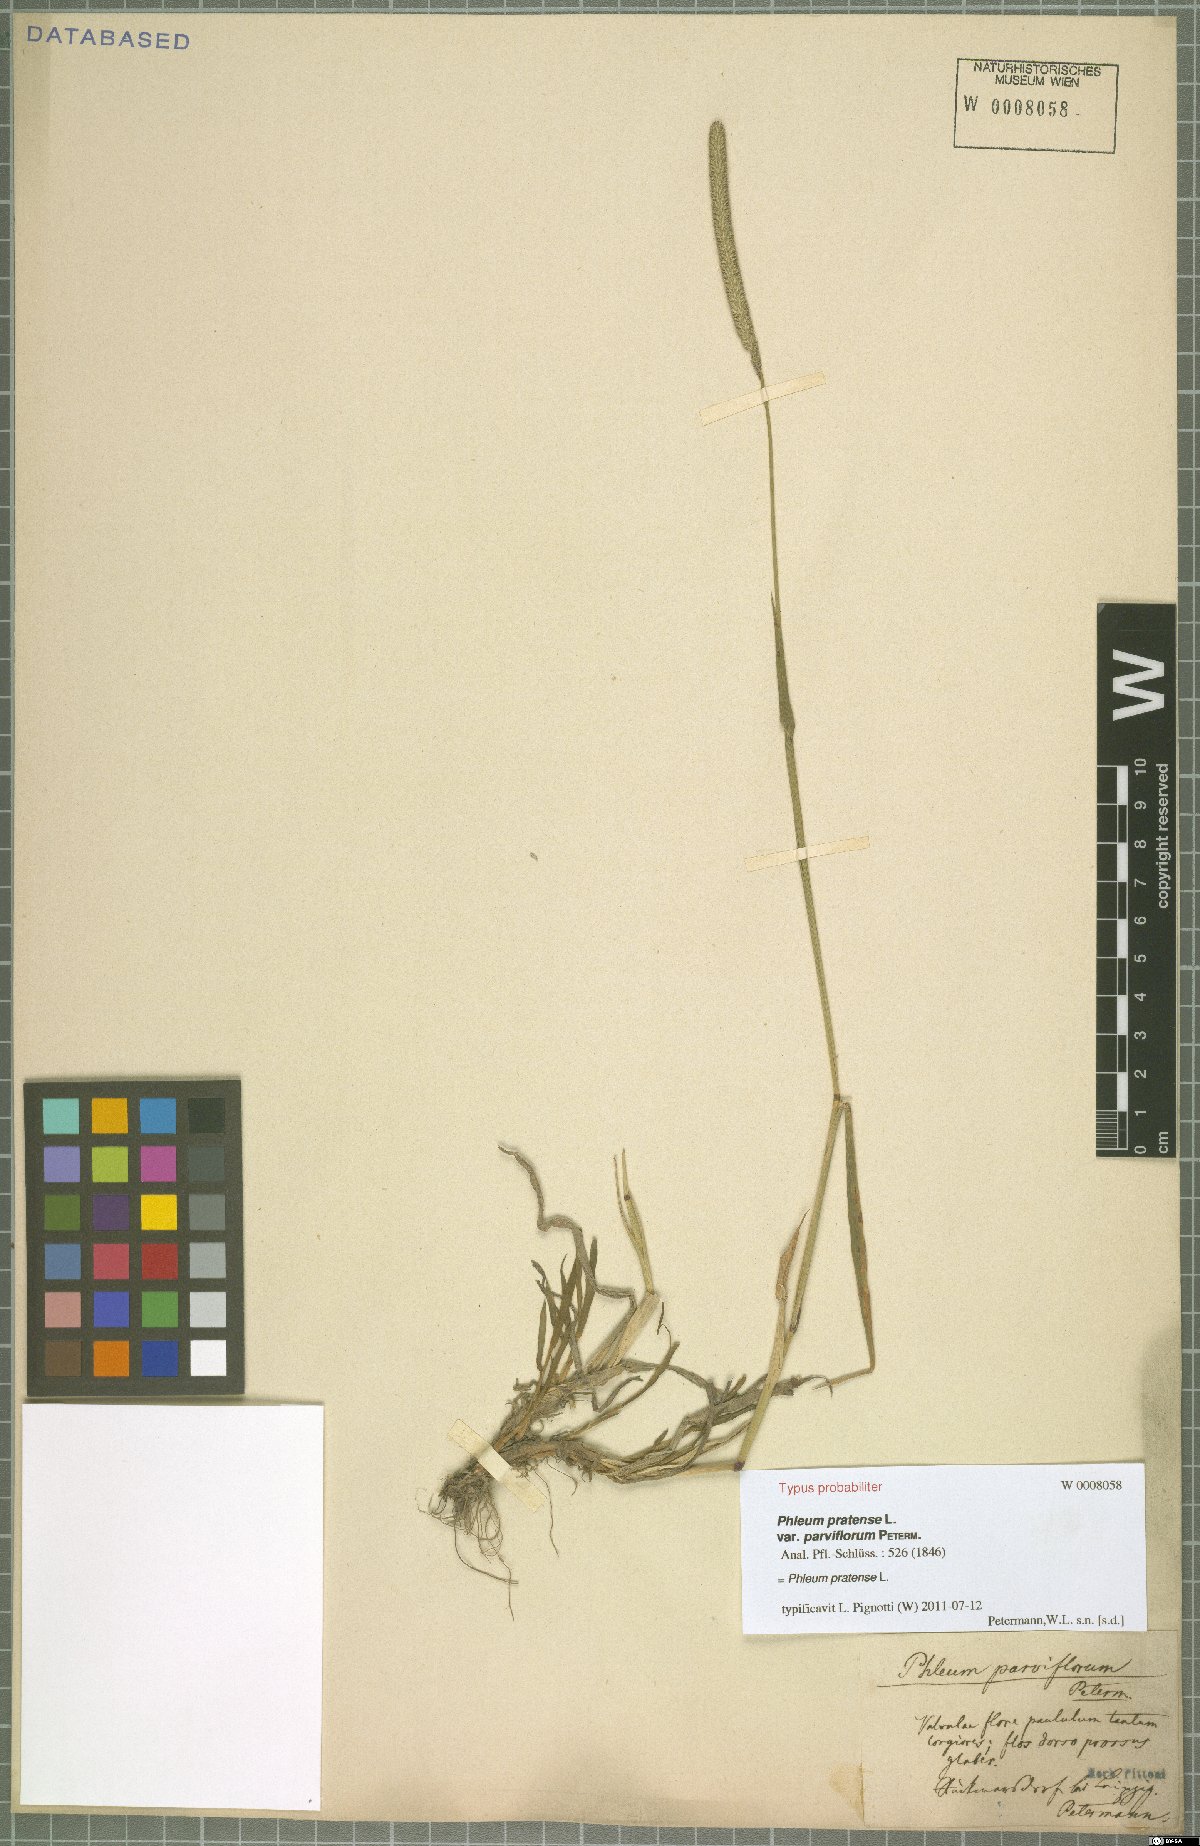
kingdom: Plantae
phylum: Tracheophyta
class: Liliopsida
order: Poales
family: Poaceae
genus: Phleum
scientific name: Phleum pratense
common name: Timothy grass
